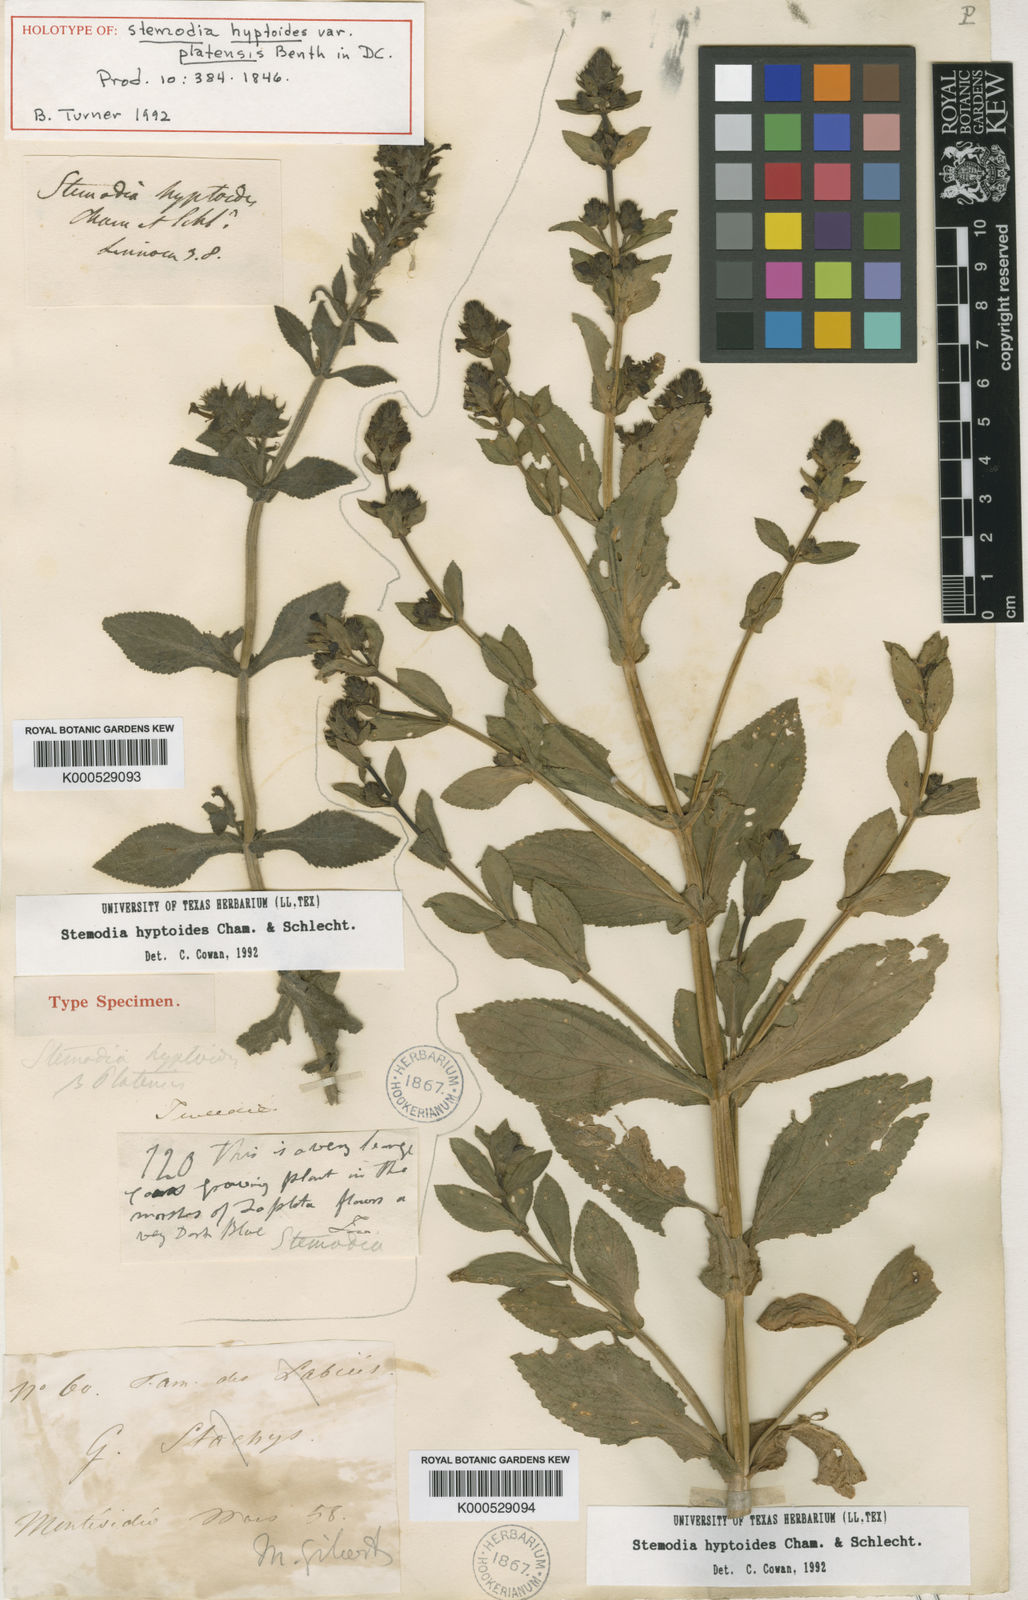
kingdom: Plantae
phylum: Tracheophyta
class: Magnoliopsida
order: Lamiales
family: Plantaginaceae
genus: Stemodia
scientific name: Stemodia hyptoides
